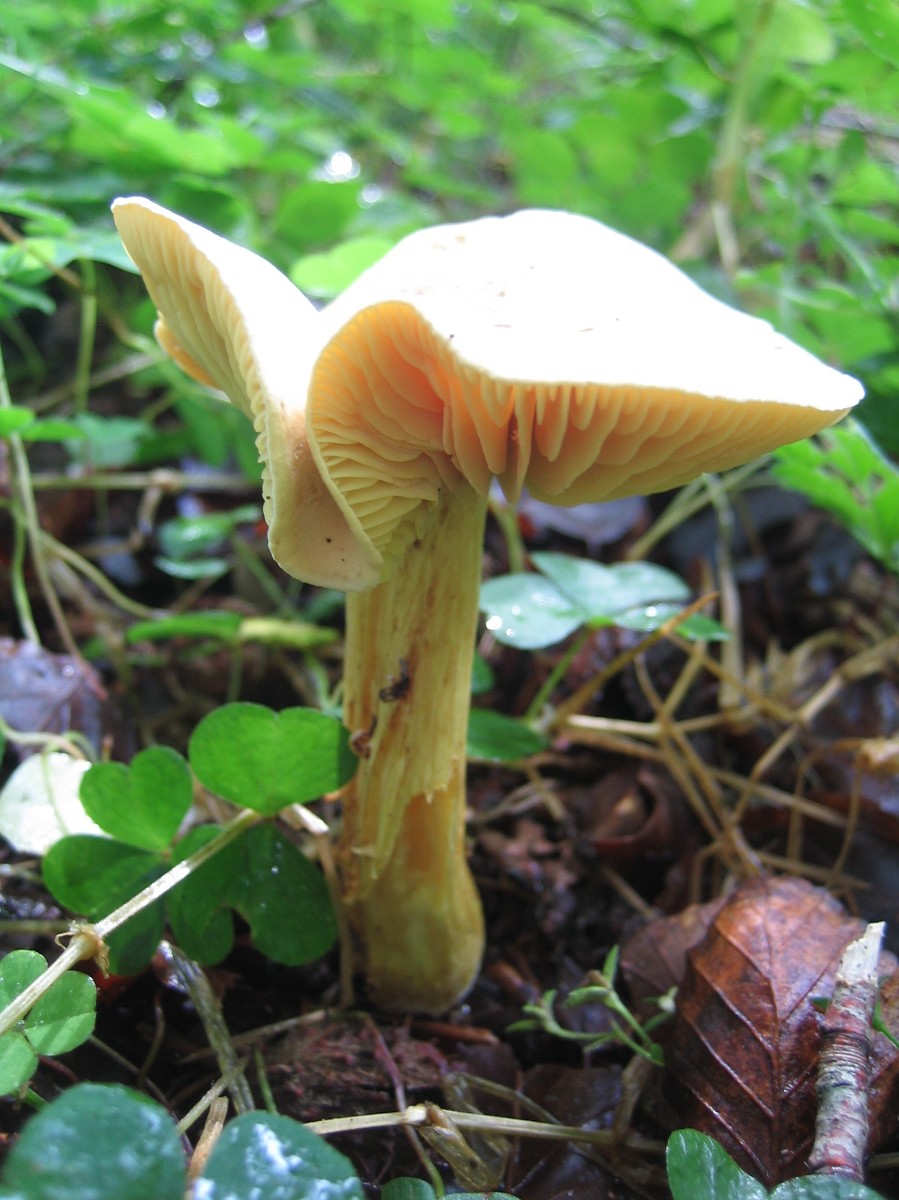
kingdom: Fungi
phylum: Basidiomycota
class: Agaricomycetes
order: Agaricales
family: Tricholomataceae
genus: Tricholoma
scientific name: Tricholoma sulphureum
